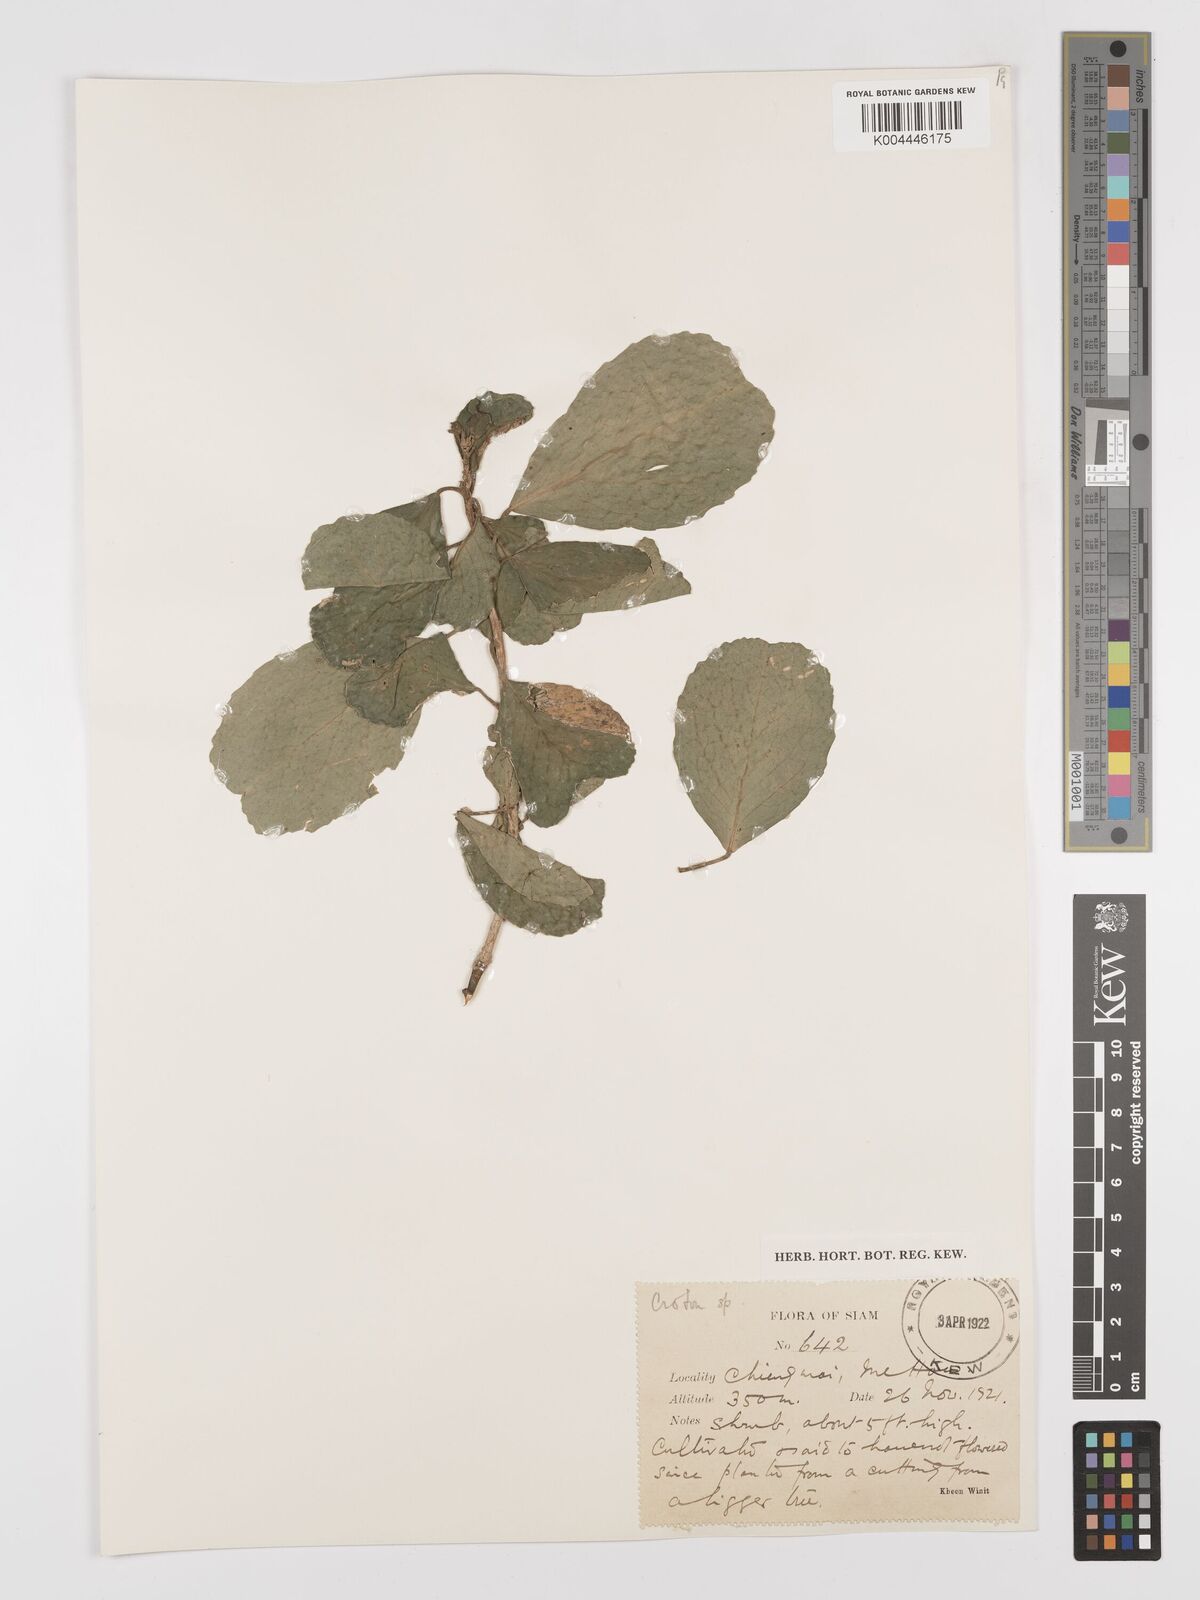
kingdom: Plantae
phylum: Tracheophyta
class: Magnoliopsida
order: Malpighiales
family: Euphorbiaceae
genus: Croton
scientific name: Croton delpyi
